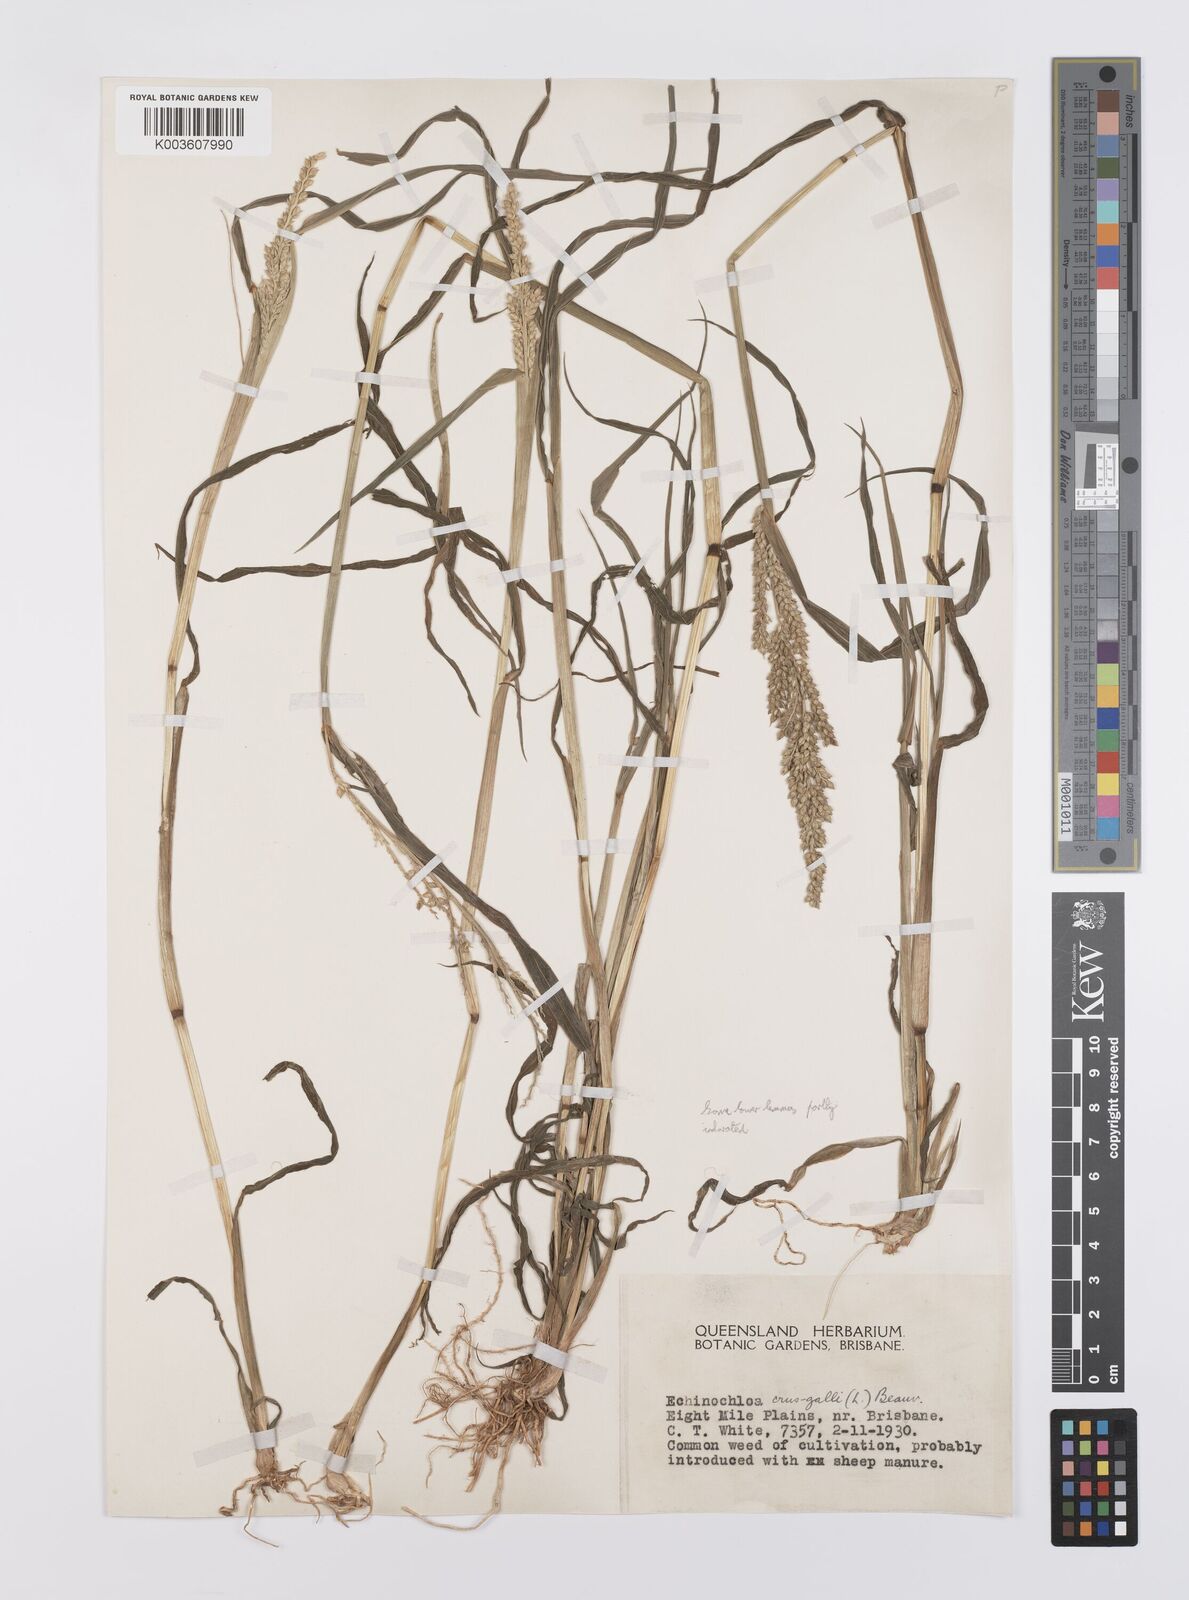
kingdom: Plantae
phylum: Tracheophyta
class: Liliopsida
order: Poales
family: Poaceae
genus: Echinochloa
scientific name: Echinochloa crus-galli
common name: Cockspur
